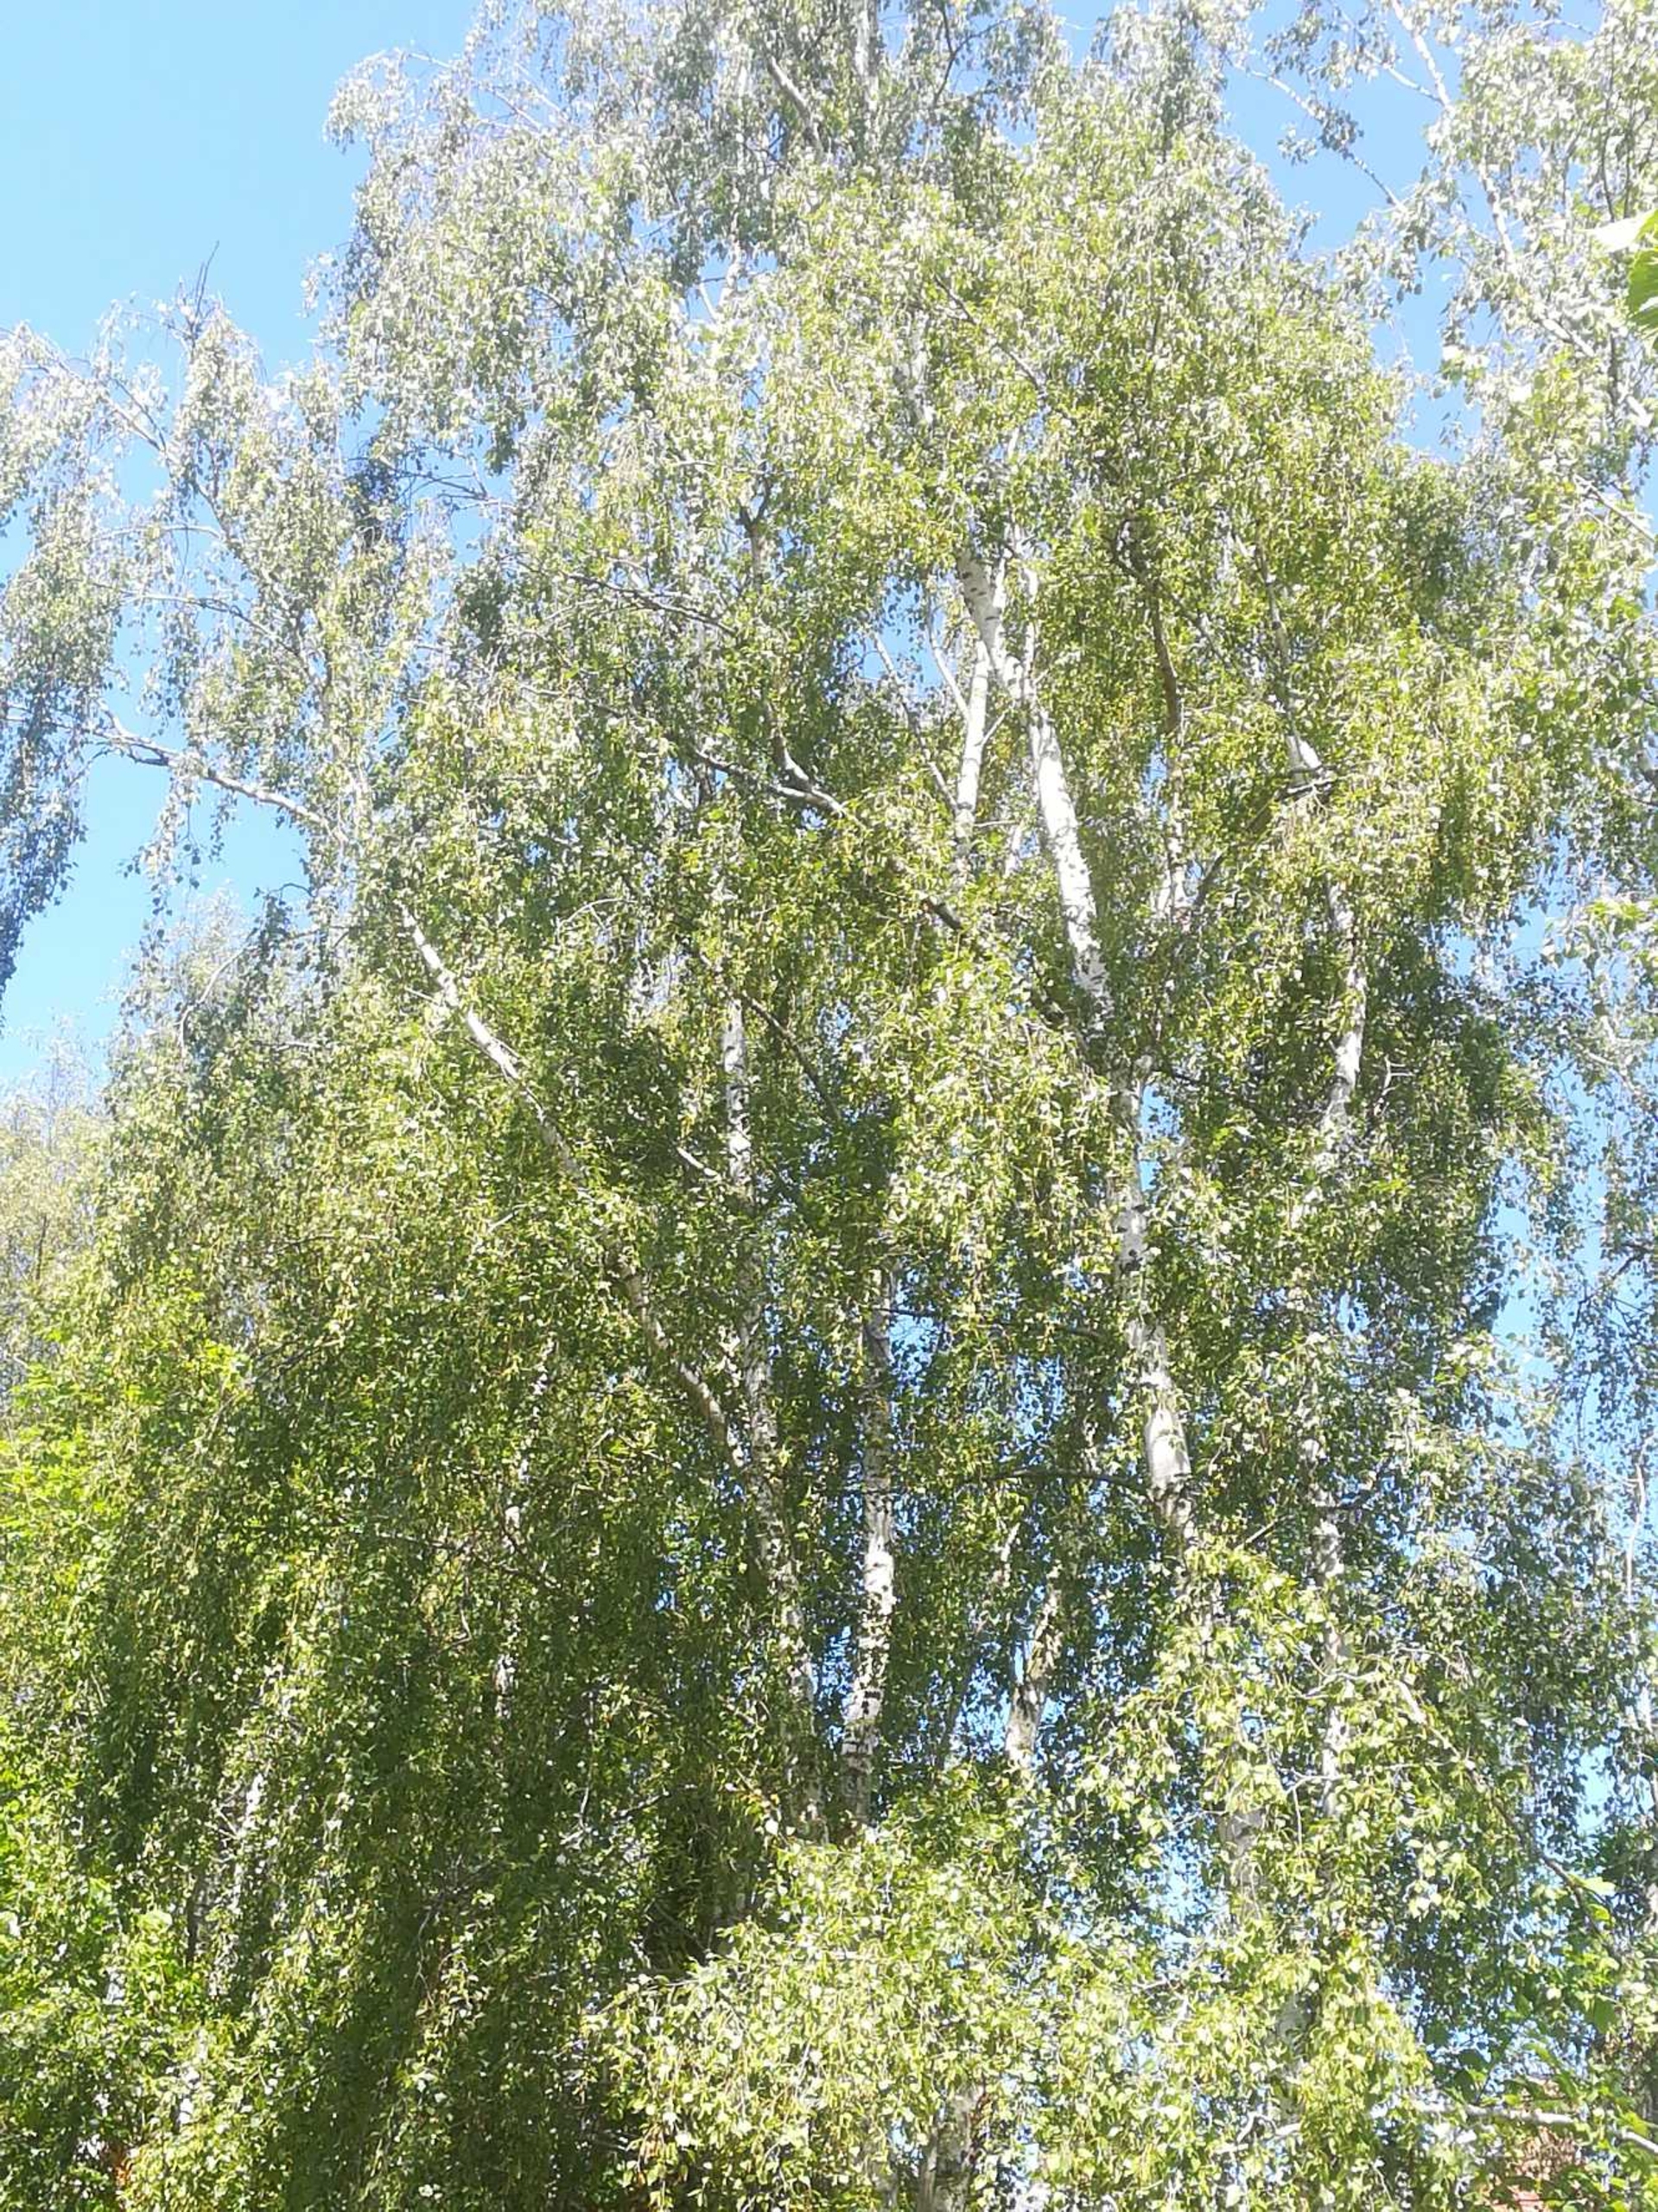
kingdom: Plantae
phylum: Tracheophyta
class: Magnoliopsida
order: Fagales
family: Betulaceae
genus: Betula
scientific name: Betula pendula
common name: Vorte-birk
